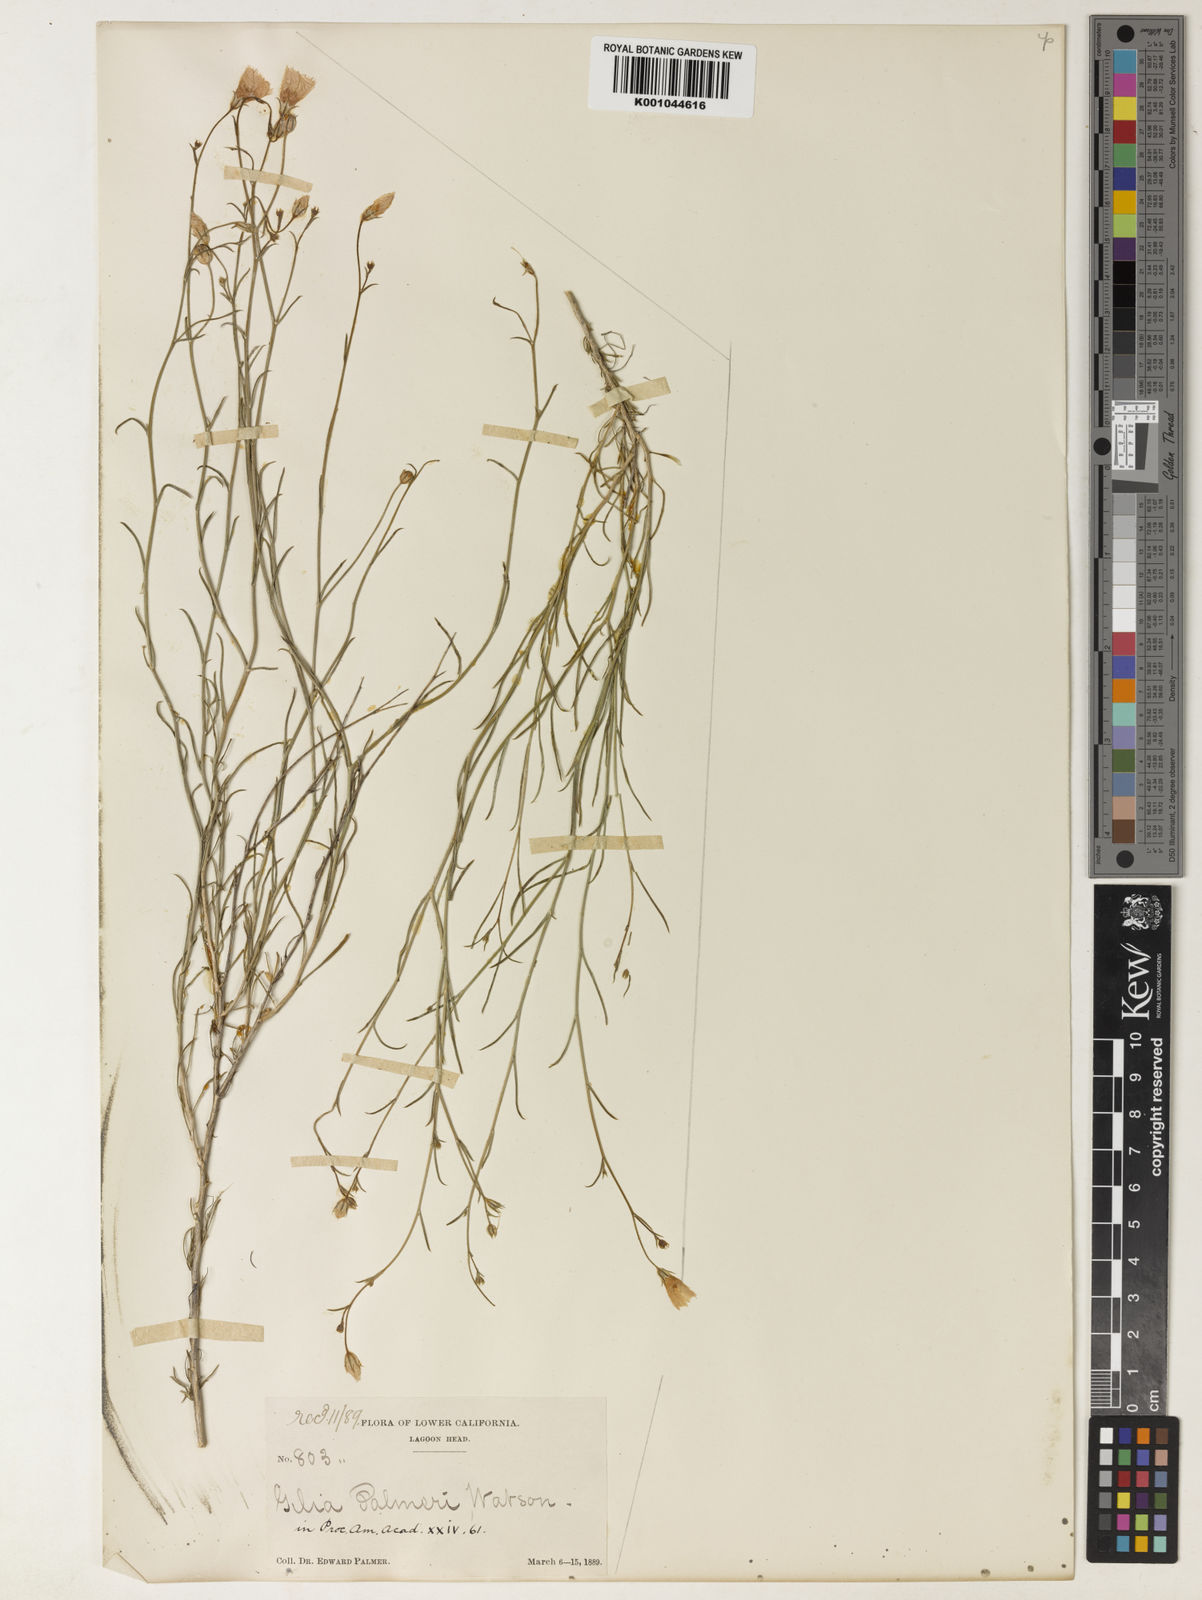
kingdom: Plantae
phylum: Tracheophyta
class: Magnoliopsida
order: Ericales
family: Polemoniaceae
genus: Bryantiella
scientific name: Bryantiella palmeri
